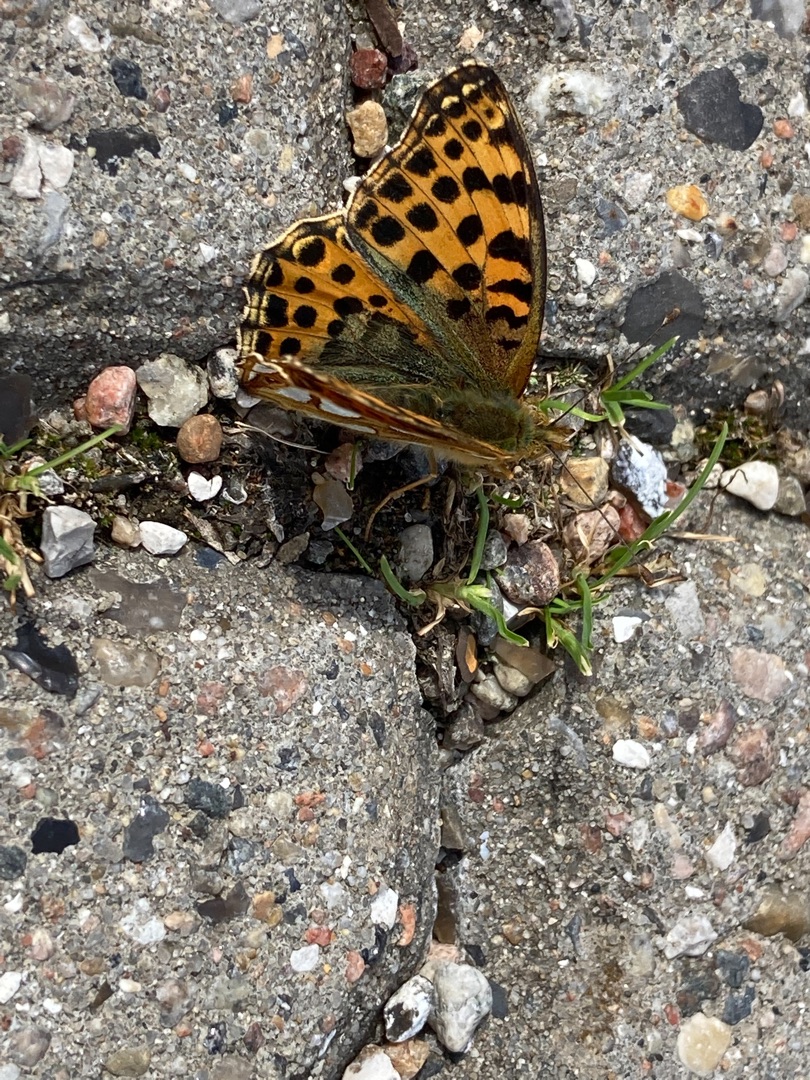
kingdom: Animalia
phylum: Arthropoda
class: Insecta
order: Lepidoptera
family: Nymphalidae
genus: Issoria
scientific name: Issoria lathonia
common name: Storplettet perlemorsommerfugl
